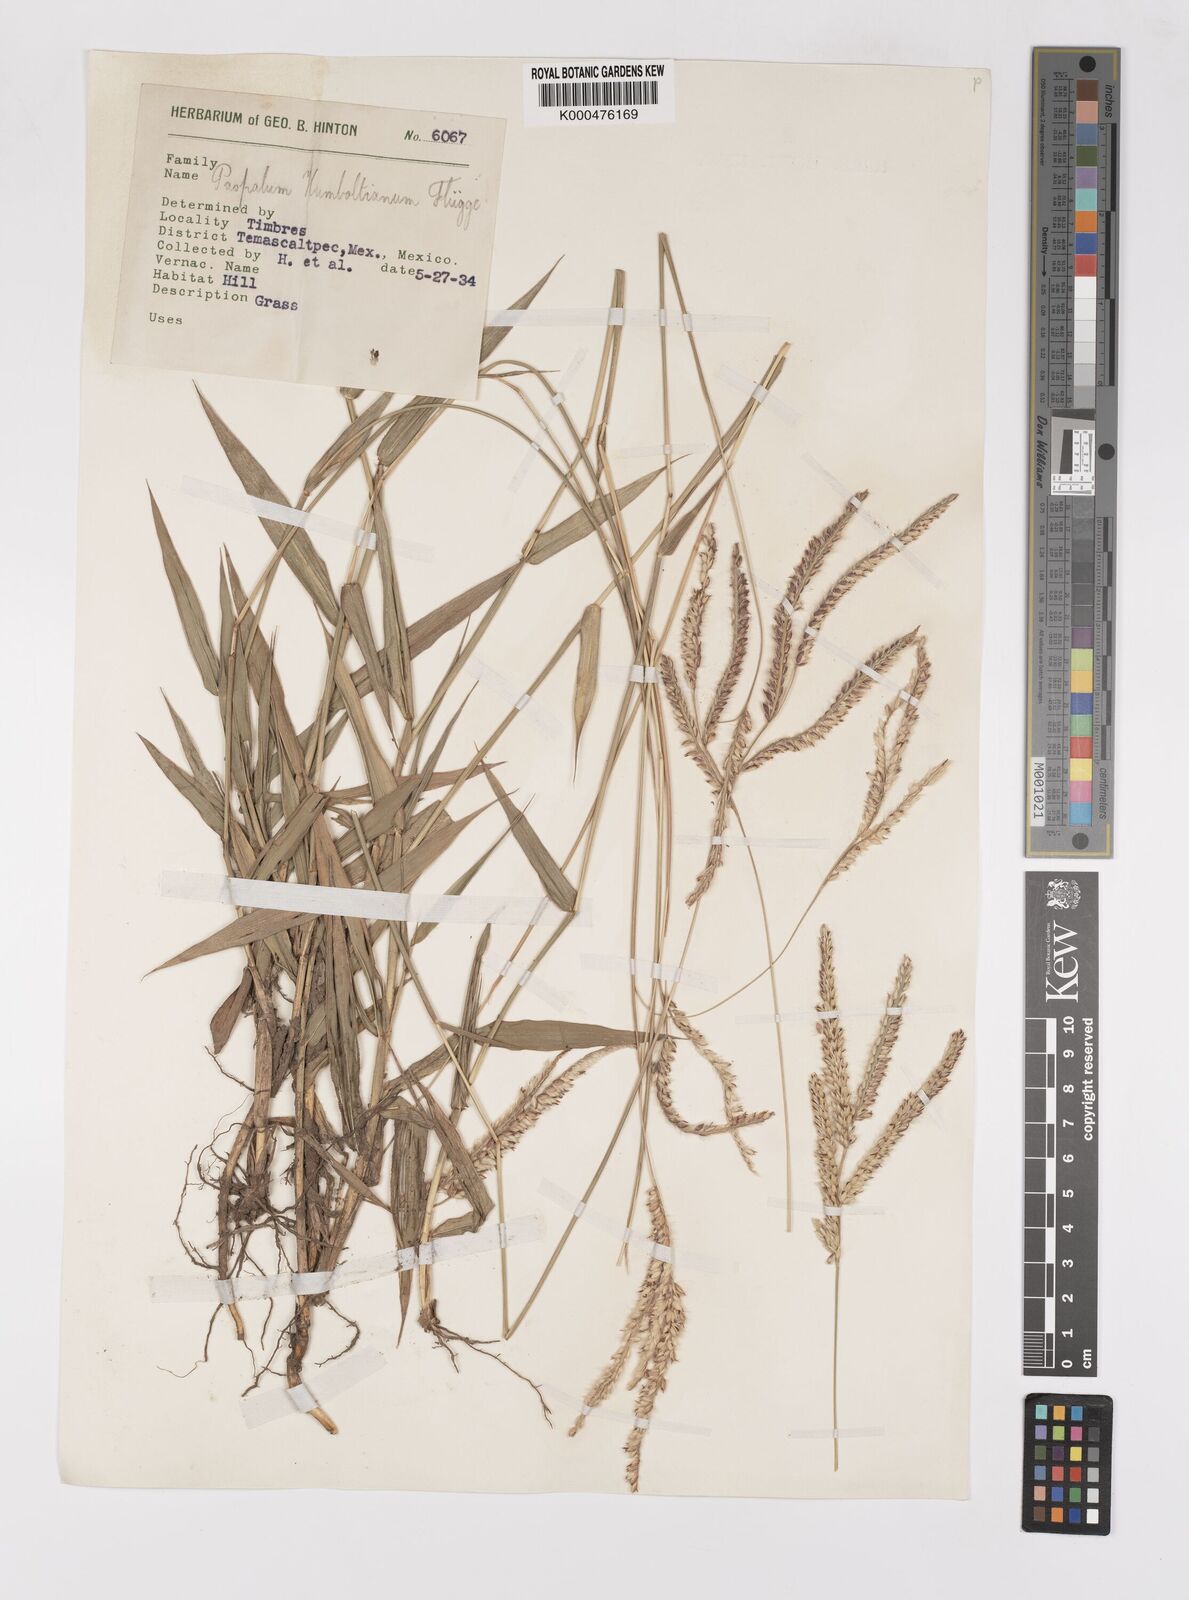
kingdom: Plantae
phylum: Tracheophyta
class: Liliopsida
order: Poales
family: Poaceae
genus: Paspalum
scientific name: Paspalum
